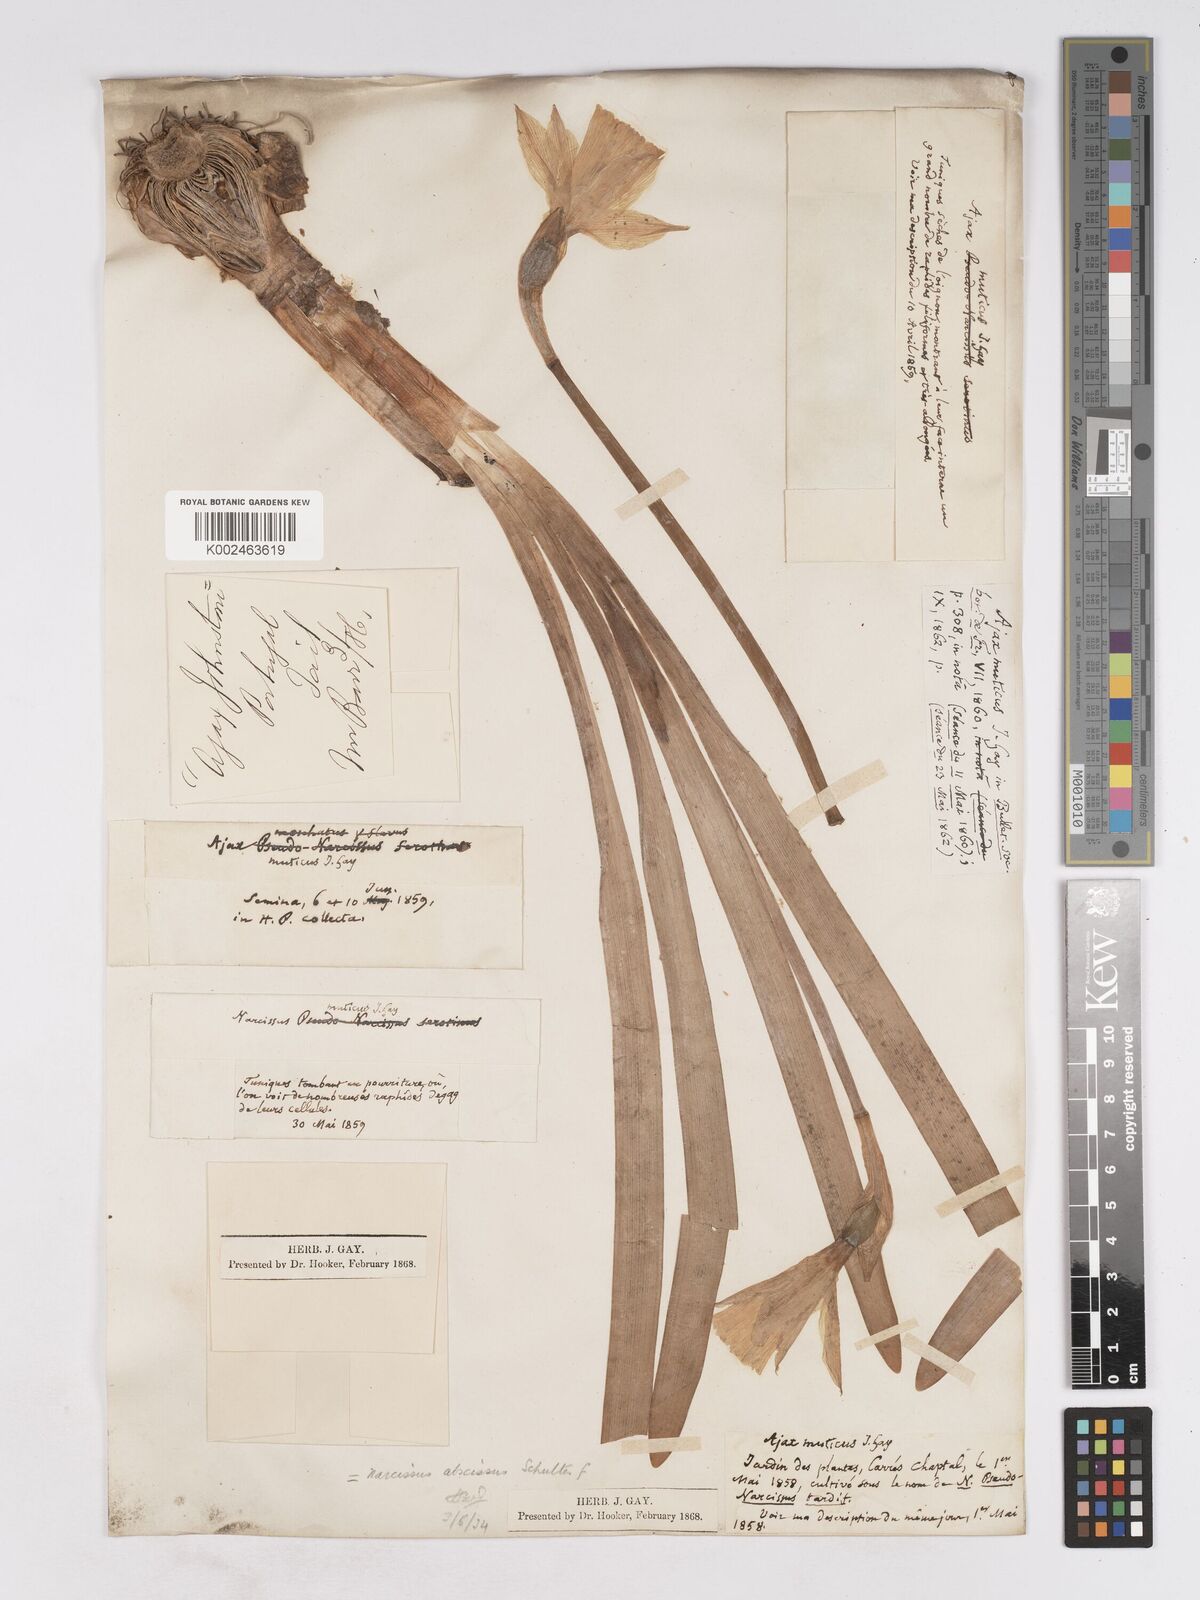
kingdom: Plantae
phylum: Tracheophyta
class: Liliopsida
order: Asparagales
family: Amaryllidaceae
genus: Narcissus
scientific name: Narcissus abscissus
